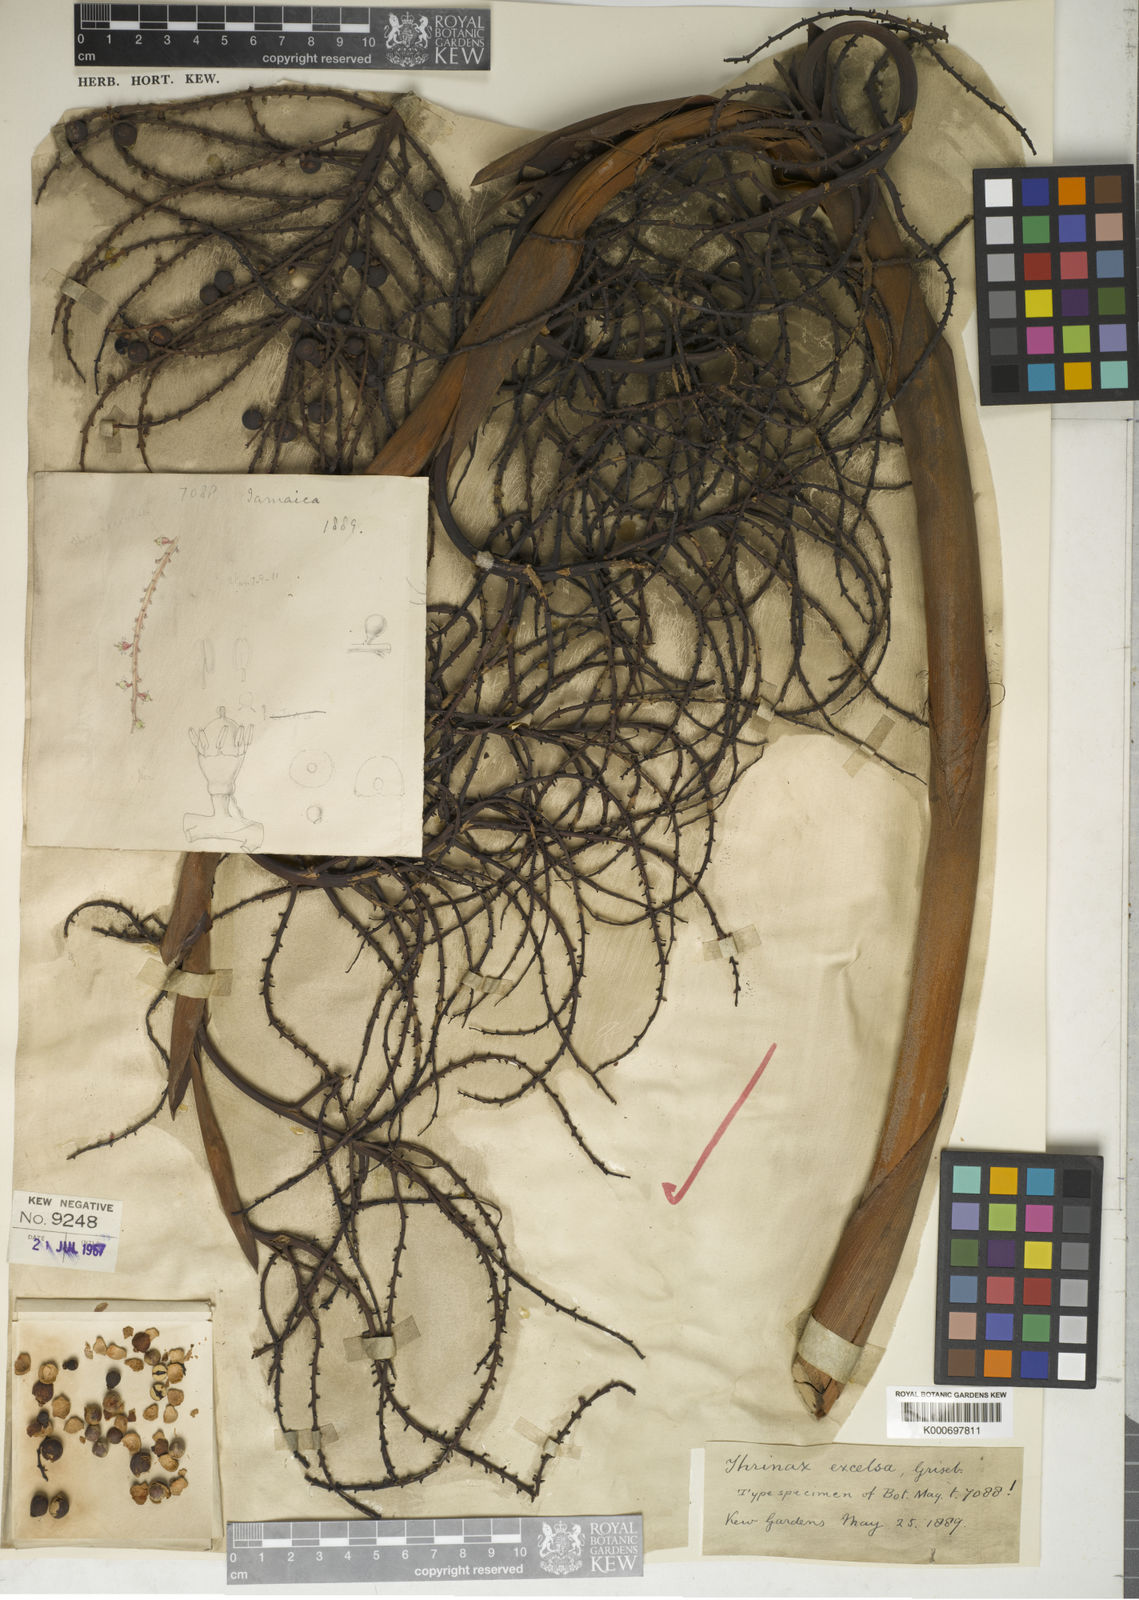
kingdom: Plantae
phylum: Tracheophyta
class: Liliopsida
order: Arecales
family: Arecaceae
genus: Thrinax
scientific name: Thrinax
